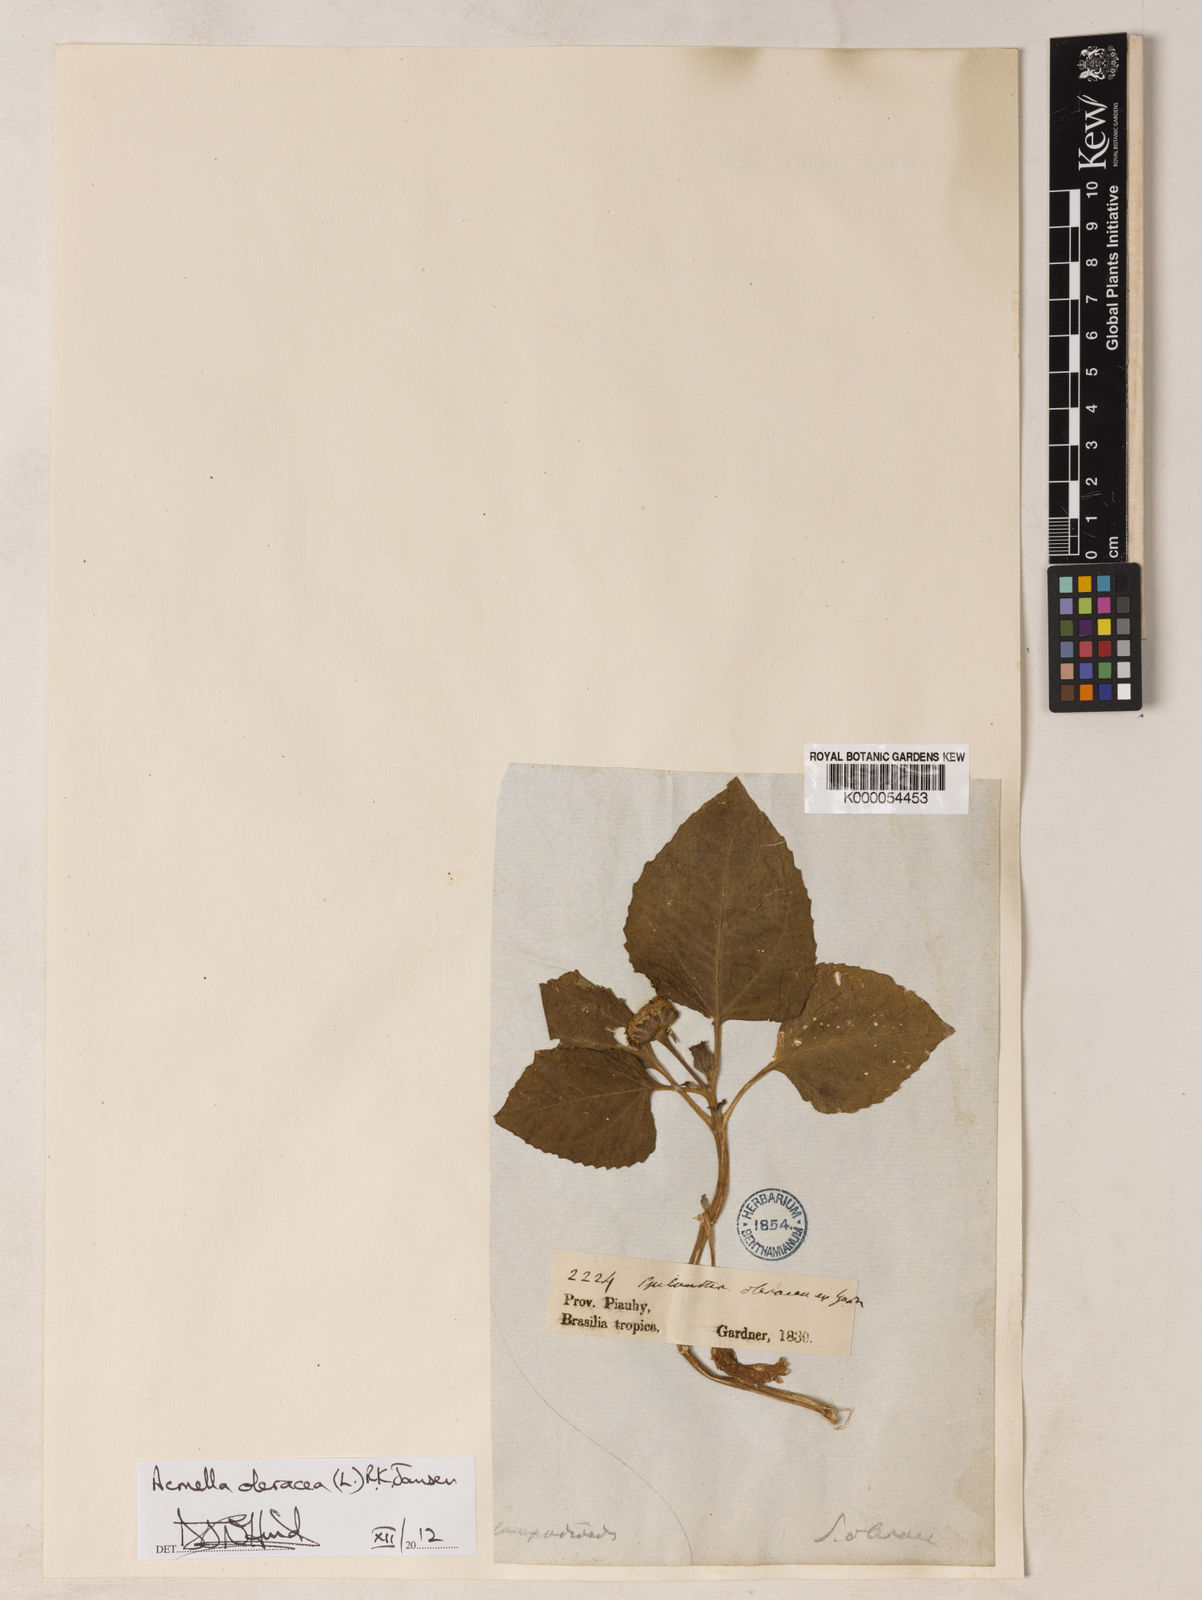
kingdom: Plantae
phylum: Tracheophyta
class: Magnoliopsida
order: Asterales
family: Asteraceae
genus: Acmella
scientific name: Acmella oleracea
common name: Brazilian cress
